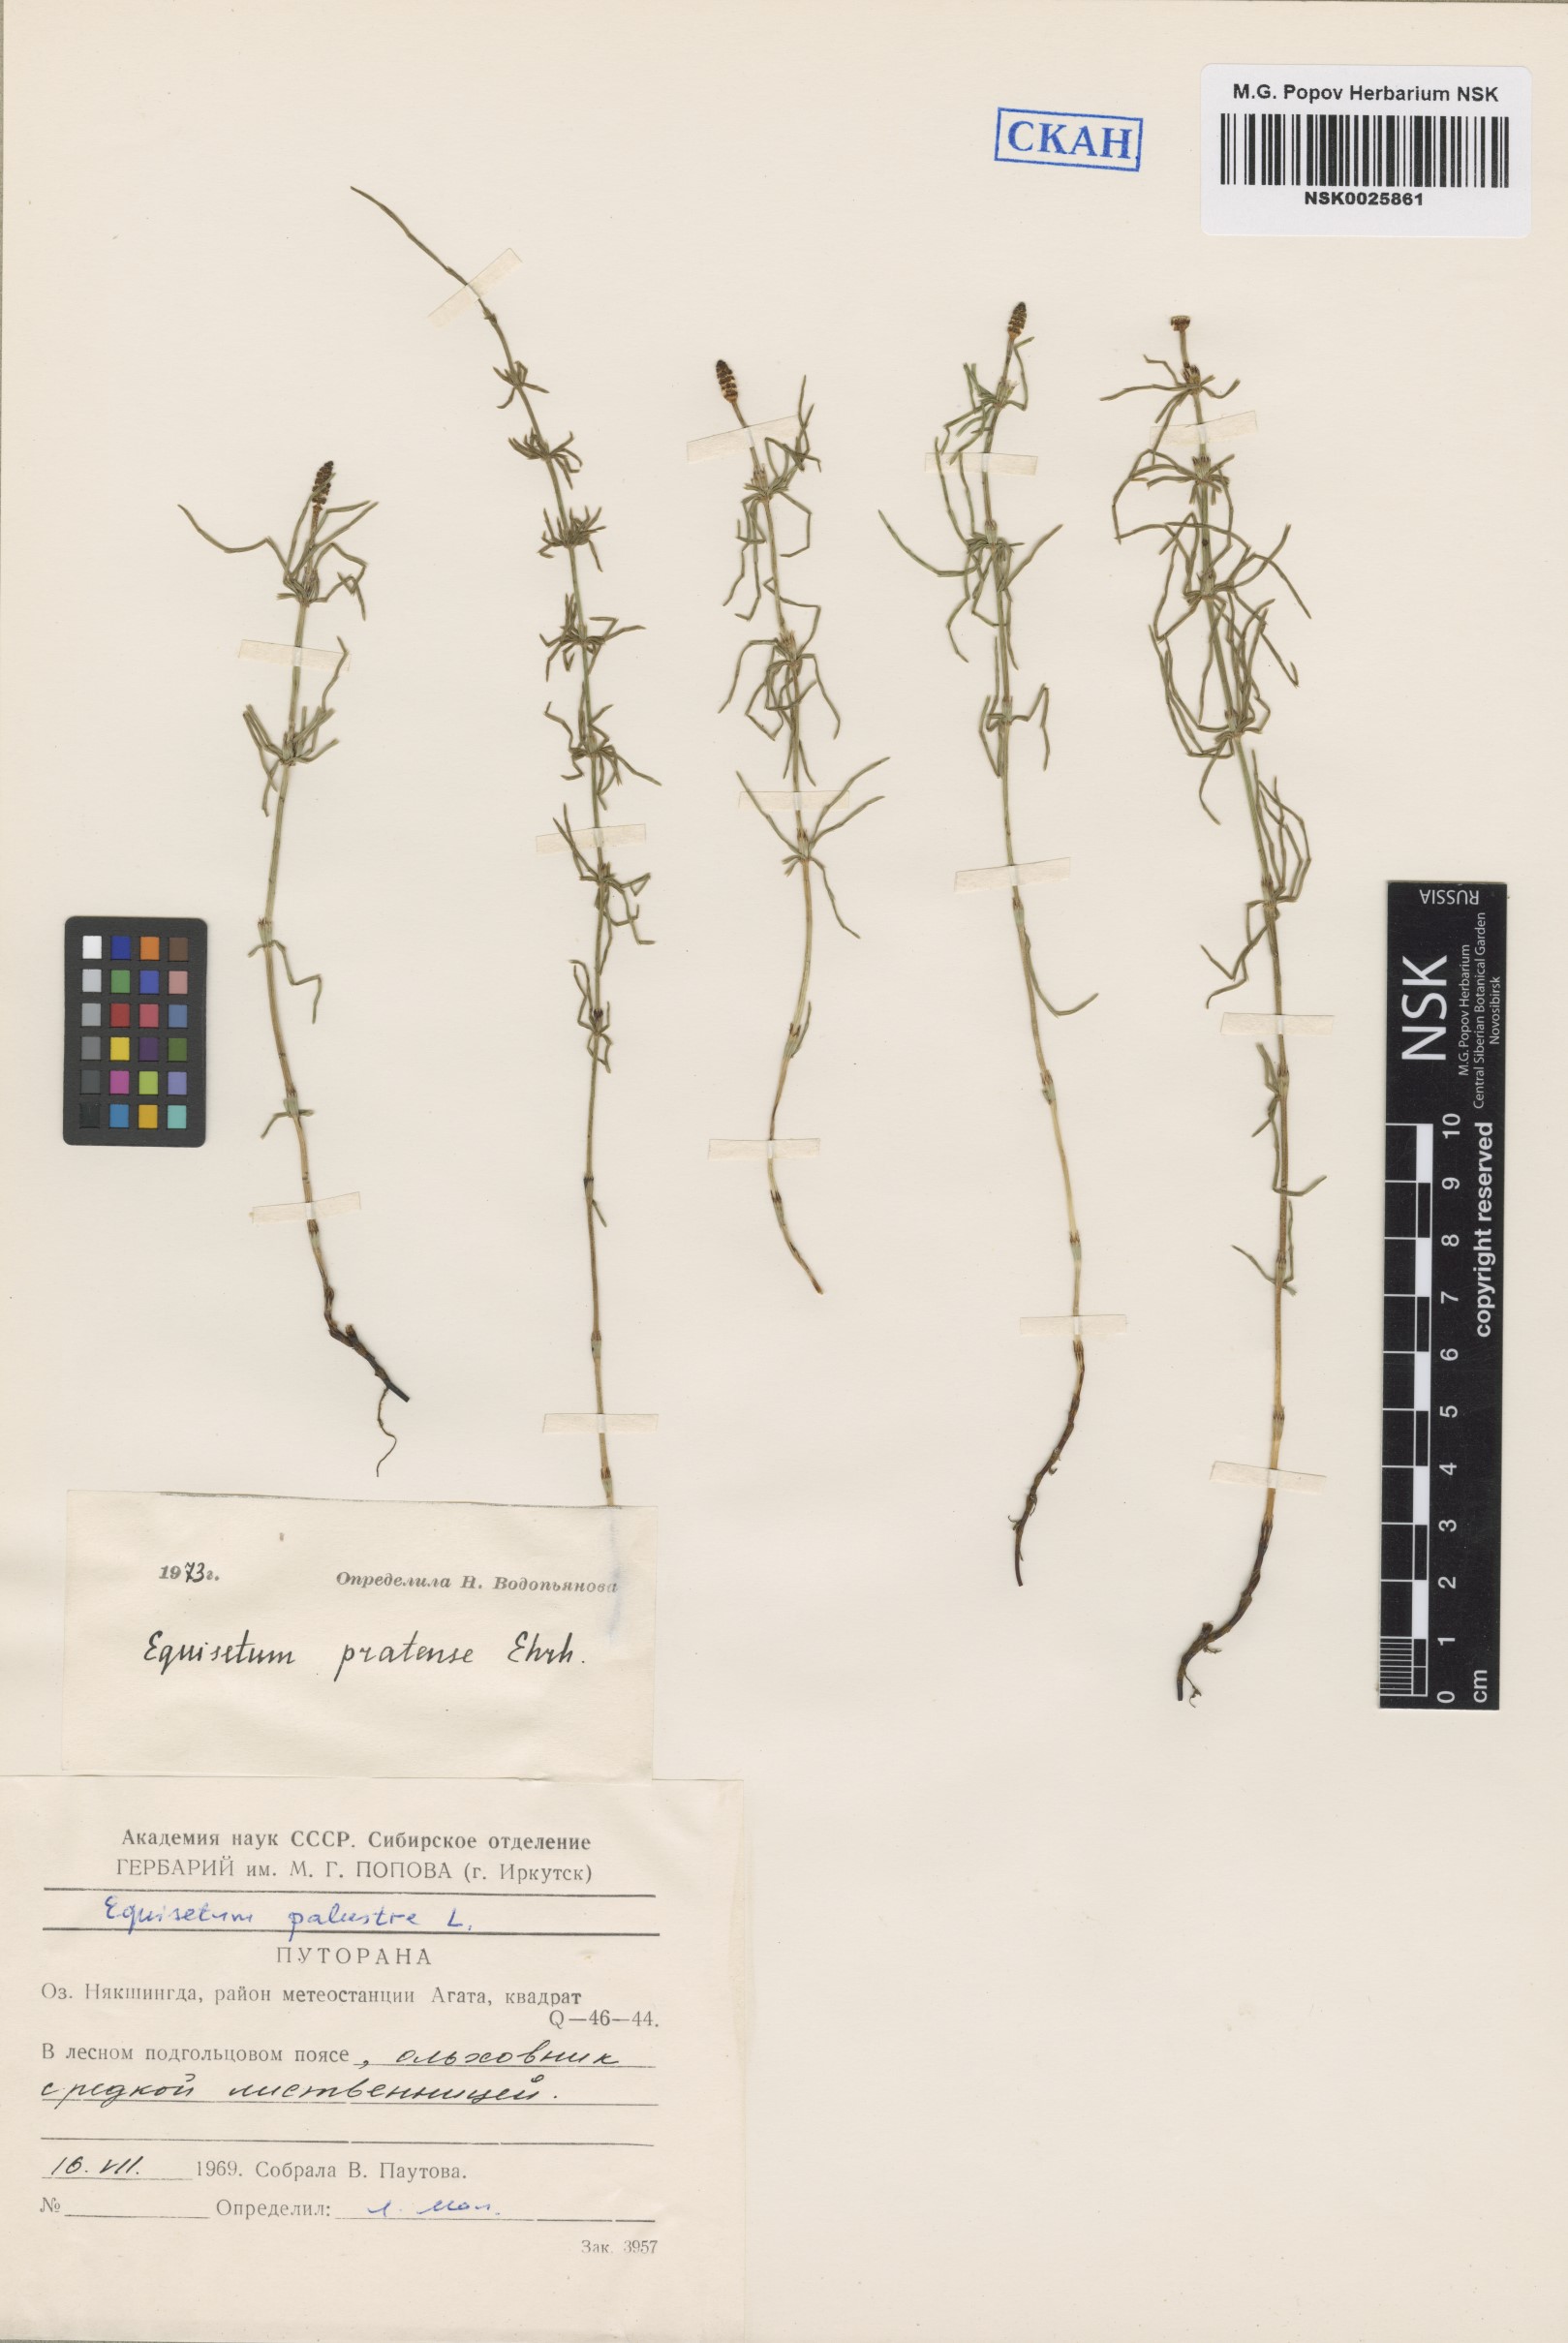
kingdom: Plantae
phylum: Tracheophyta
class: Polypodiopsida
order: Equisetales
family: Equisetaceae
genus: Equisetum
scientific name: Equisetum pratense
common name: Meadow horsetail
